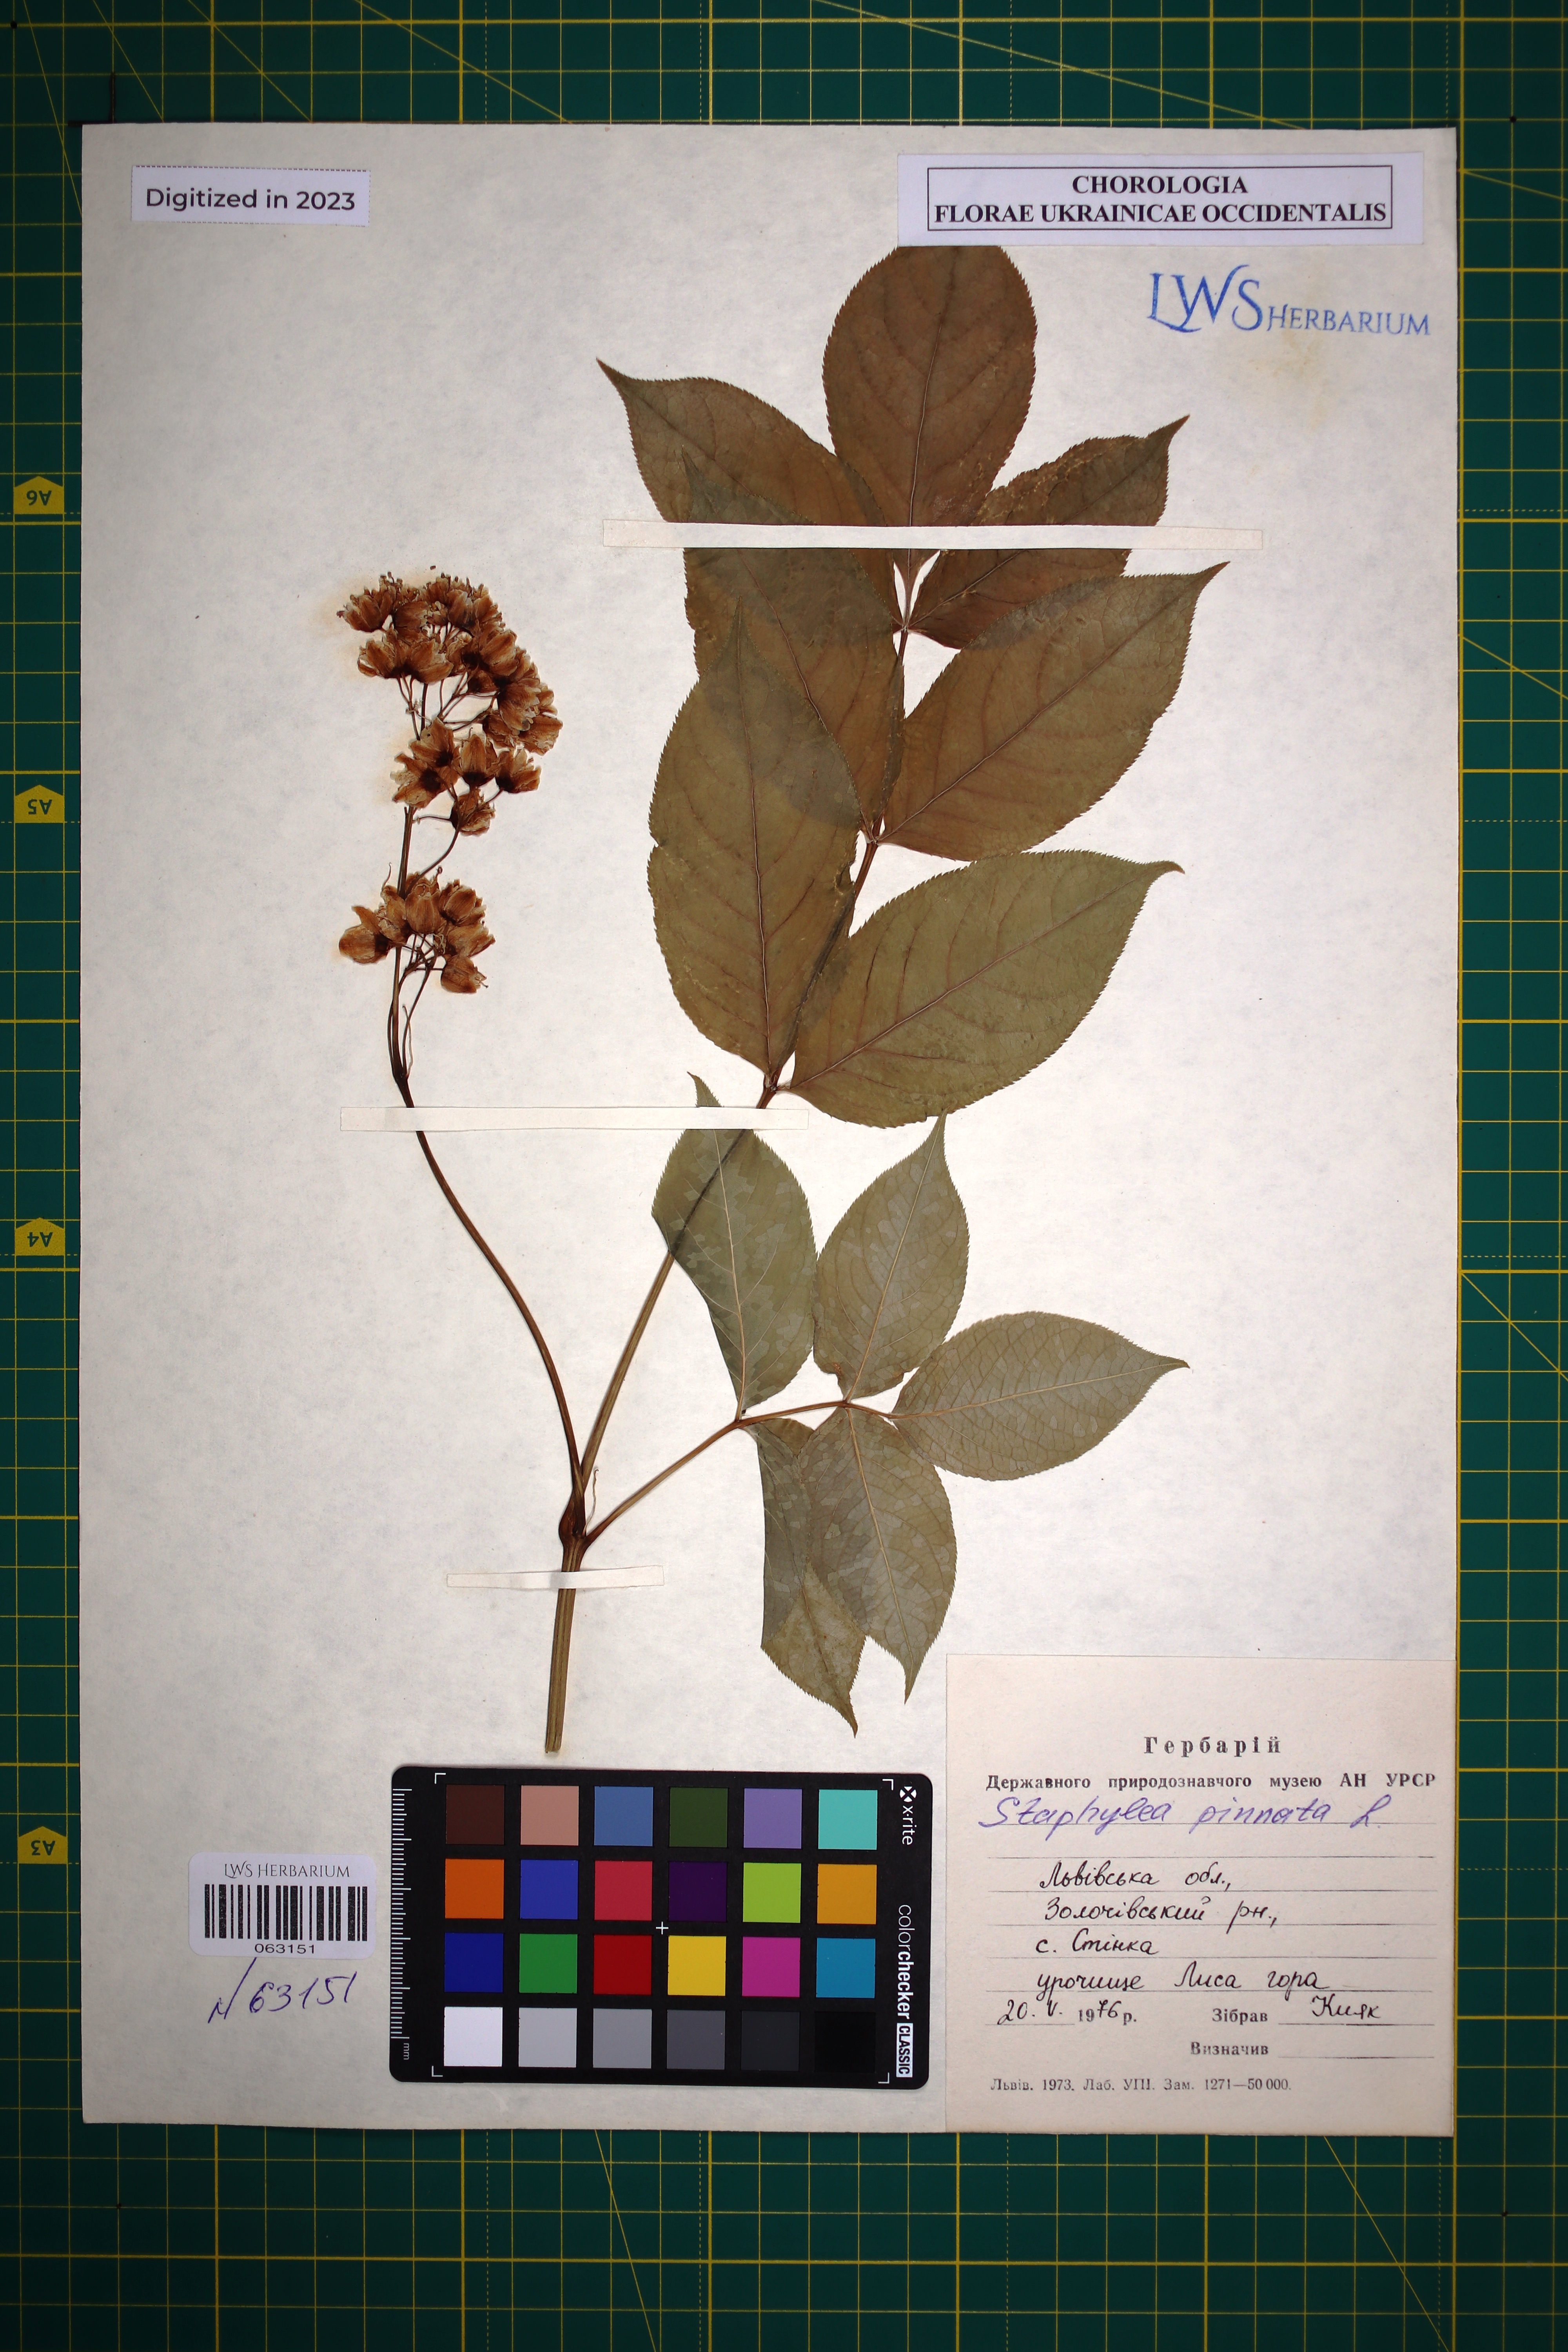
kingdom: Plantae
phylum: Tracheophyta
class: Magnoliopsida
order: Crossosomatales
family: Staphyleaceae
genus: Staphylea
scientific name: Staphylea pinnata
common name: Bladdernut
